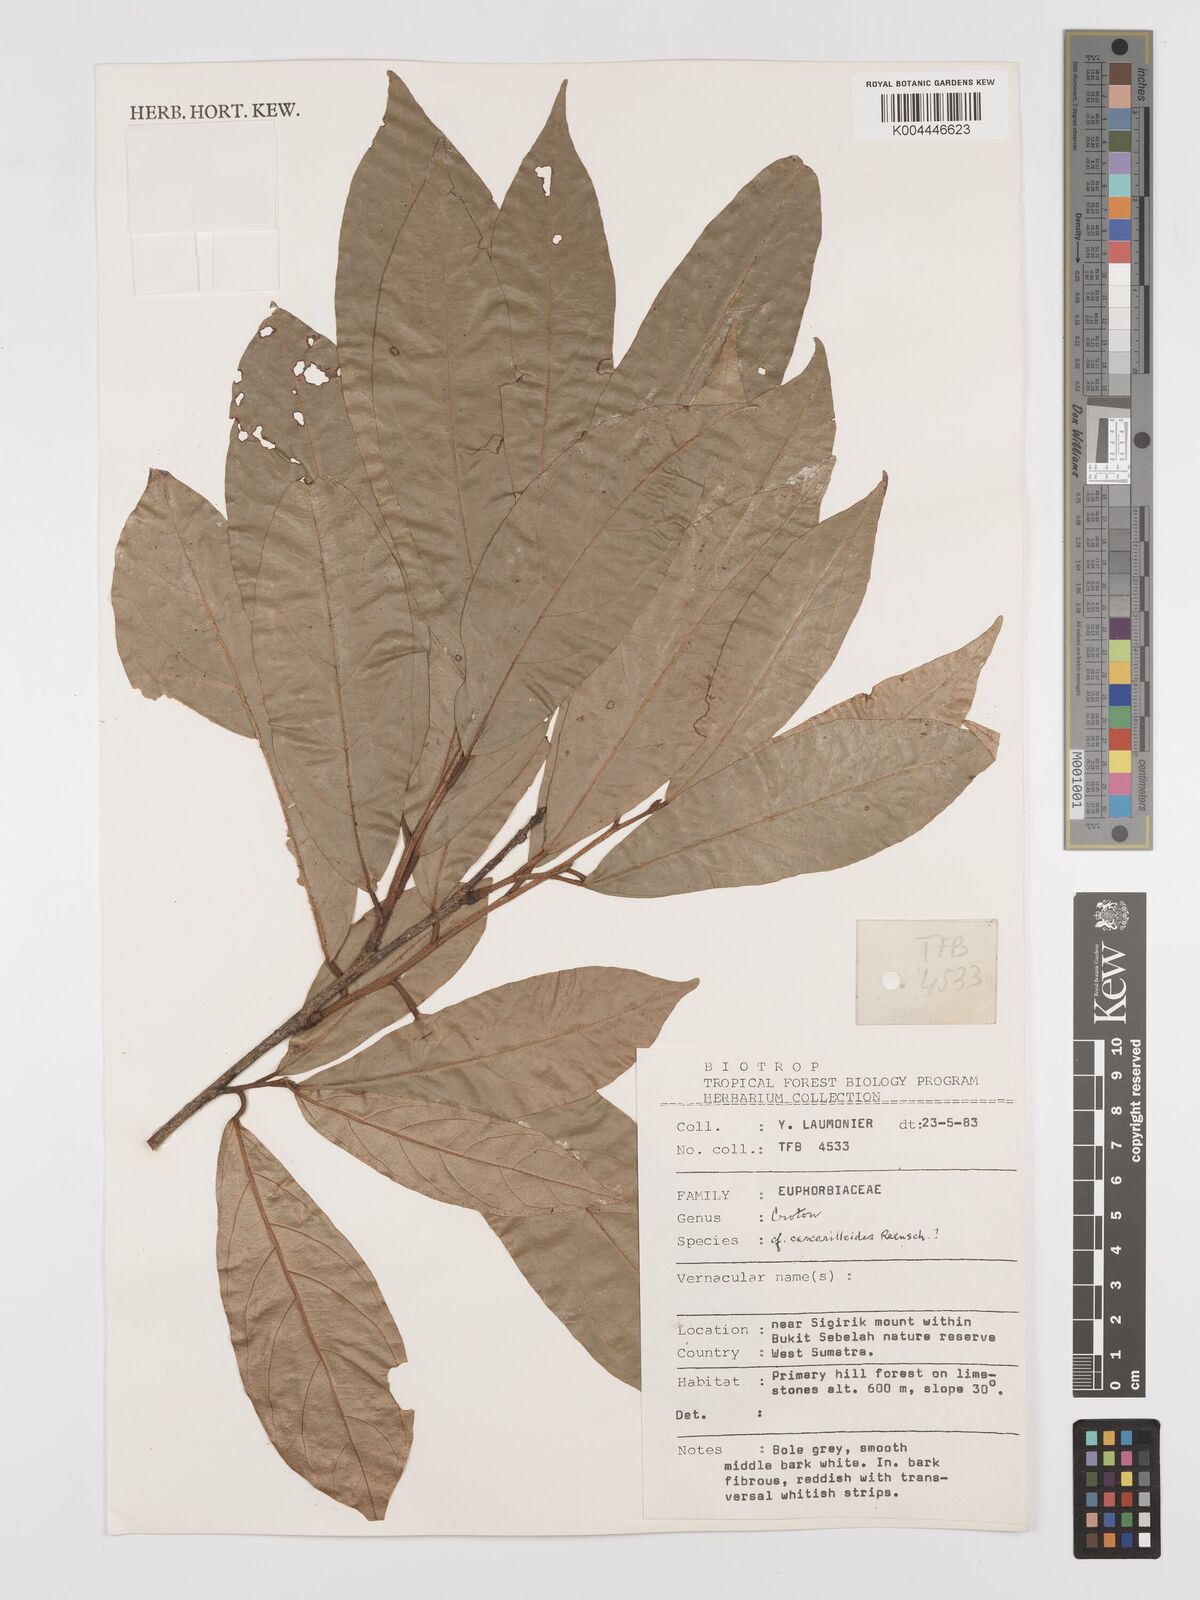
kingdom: Plantae
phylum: Tracheophyta
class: Magnoliopsida
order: Malpighiales
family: Euphorbiaceae
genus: Croton
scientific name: Croton cascarilloides
